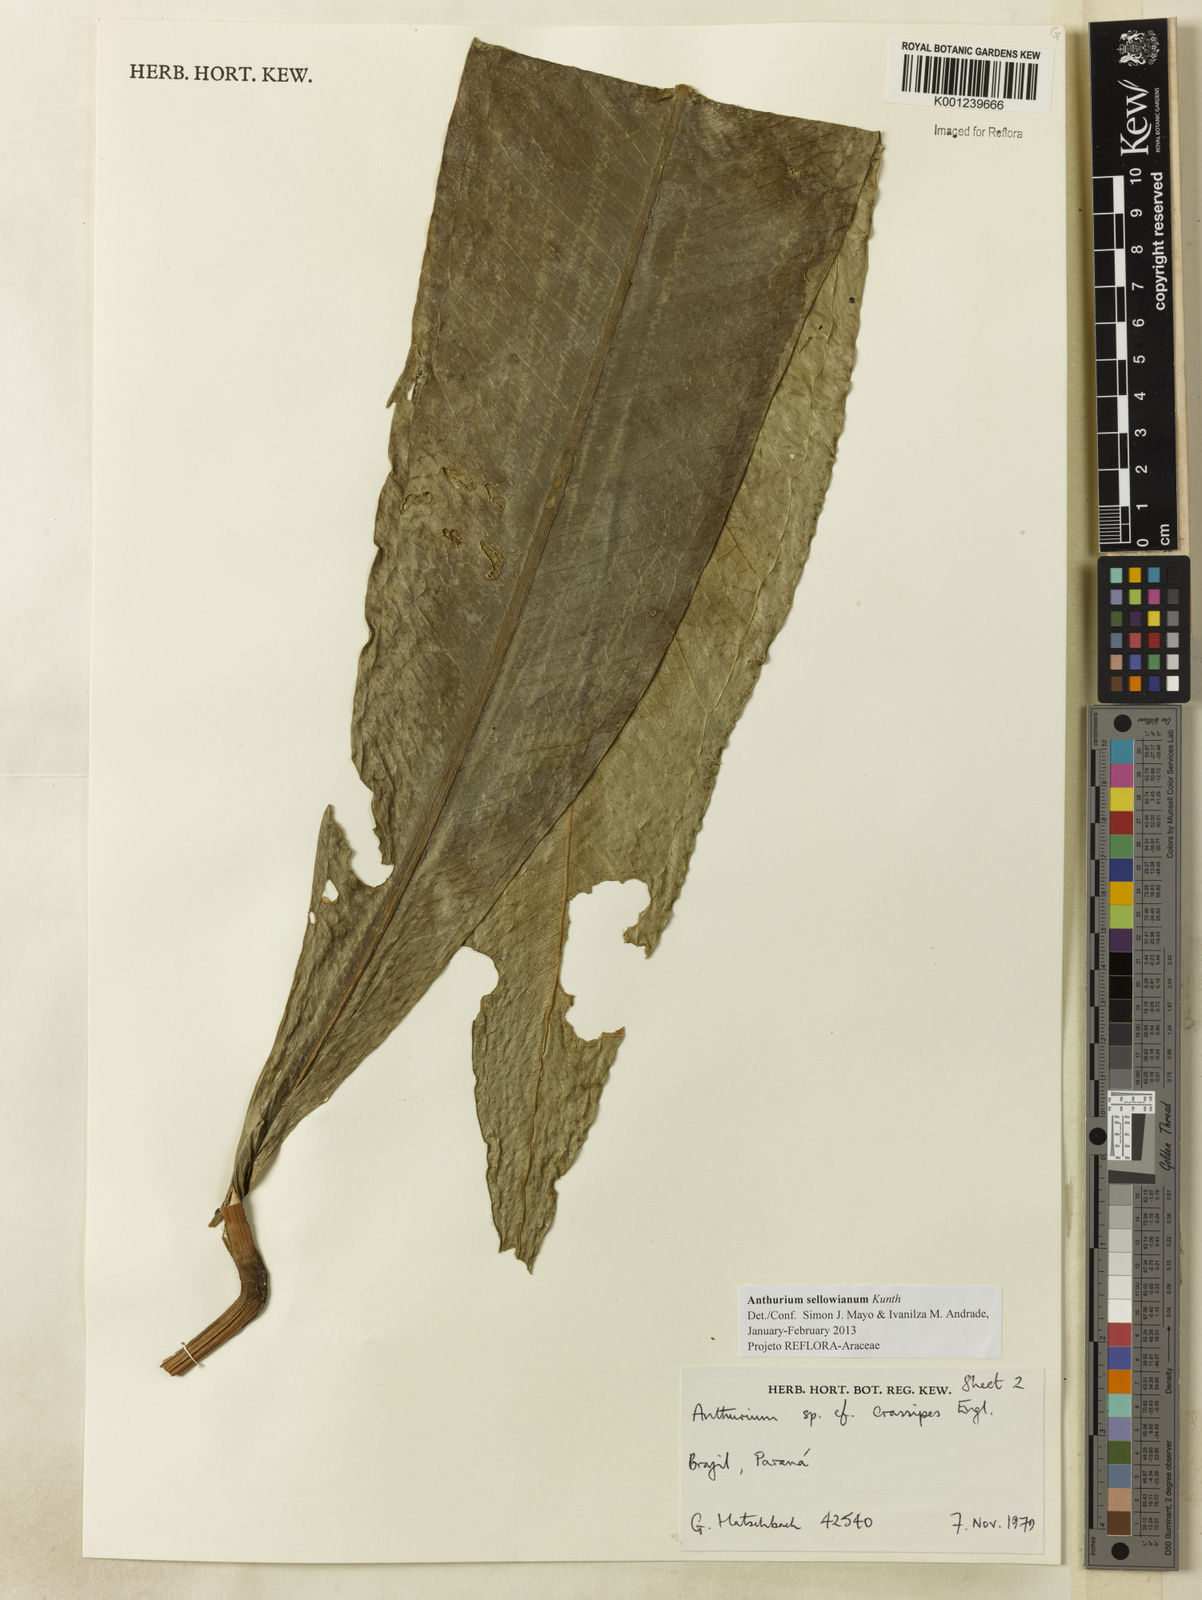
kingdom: Plantae
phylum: Tracheophyta
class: Liliopsida
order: Alismatales
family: Araceae
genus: Anthurium
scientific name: Anthurium sellowianum
